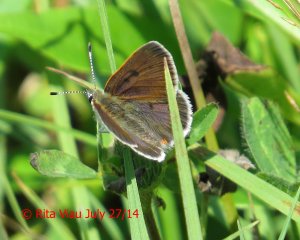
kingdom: Animalia
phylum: Arthropoda
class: Insecta
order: Lepidoptera
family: Sesiidae
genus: Sesia
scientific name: Sesia Lycaena epixanthe
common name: Bog Copper
